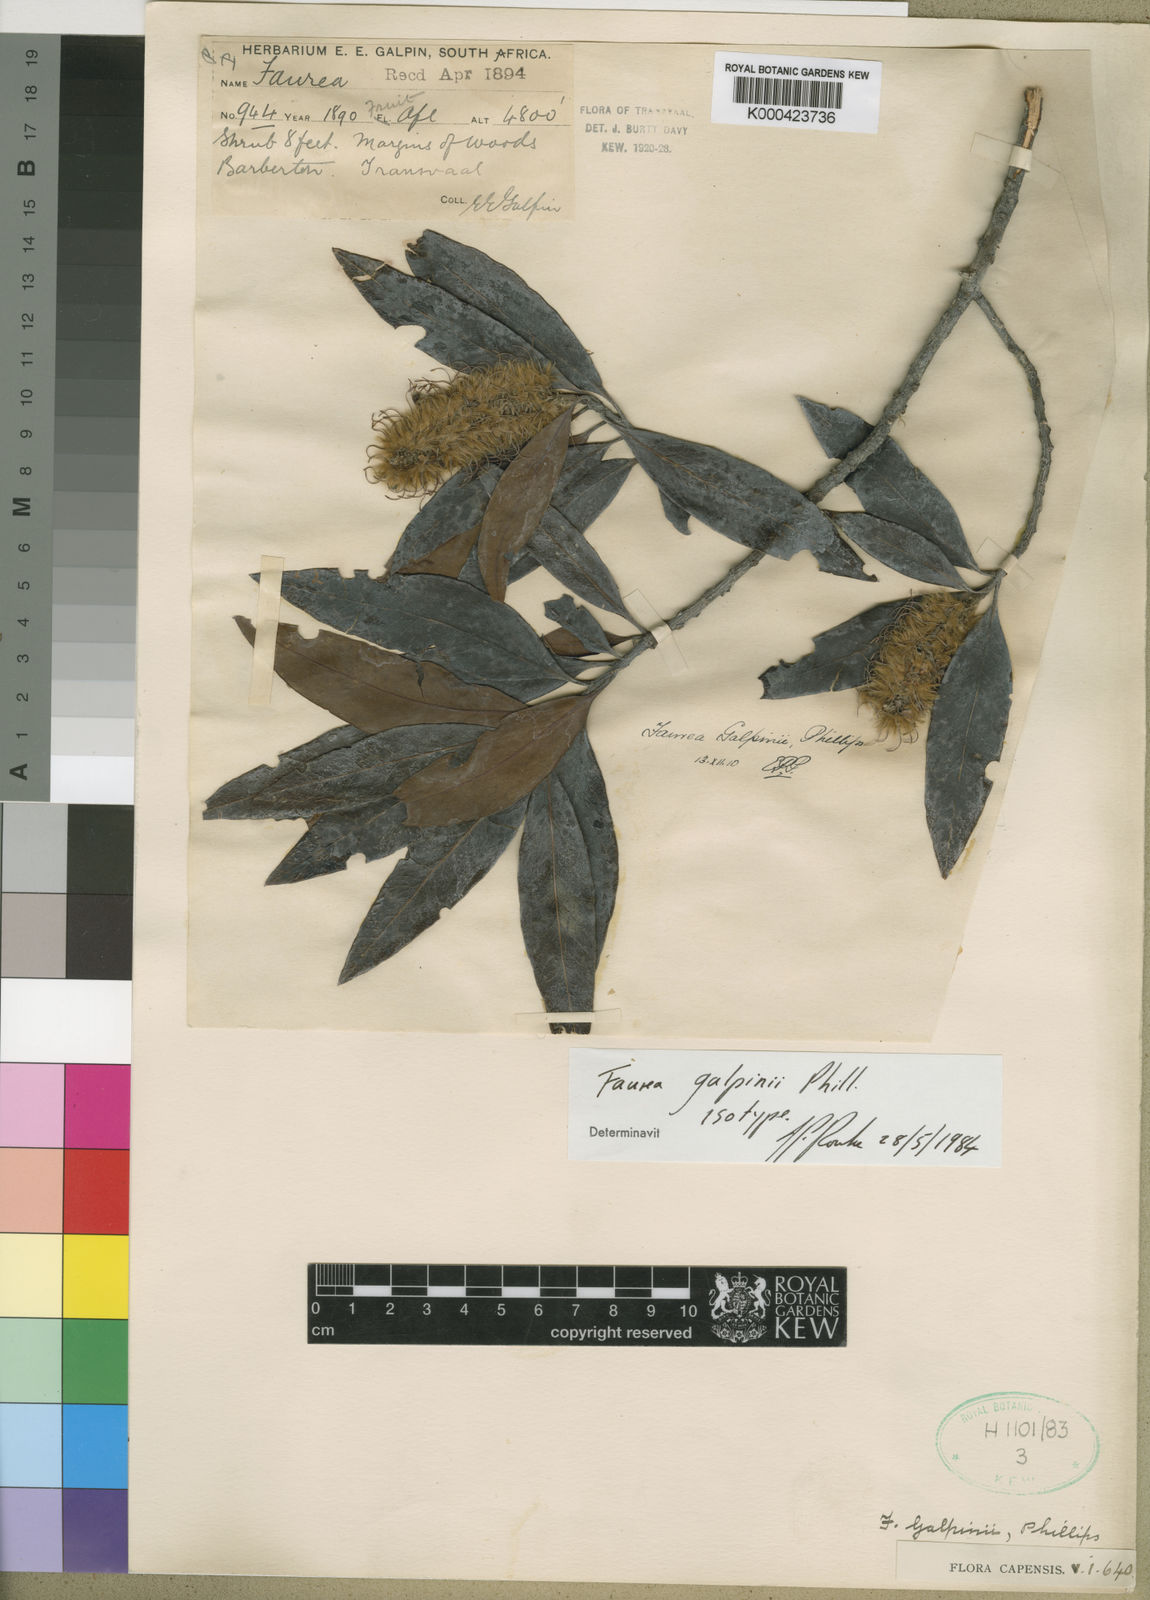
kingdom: Plantae
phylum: Tracheophyta
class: Magnoliopsida
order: Proteales
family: Proteaceae
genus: Faurea
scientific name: Faurea galpinii
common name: Bush beech
